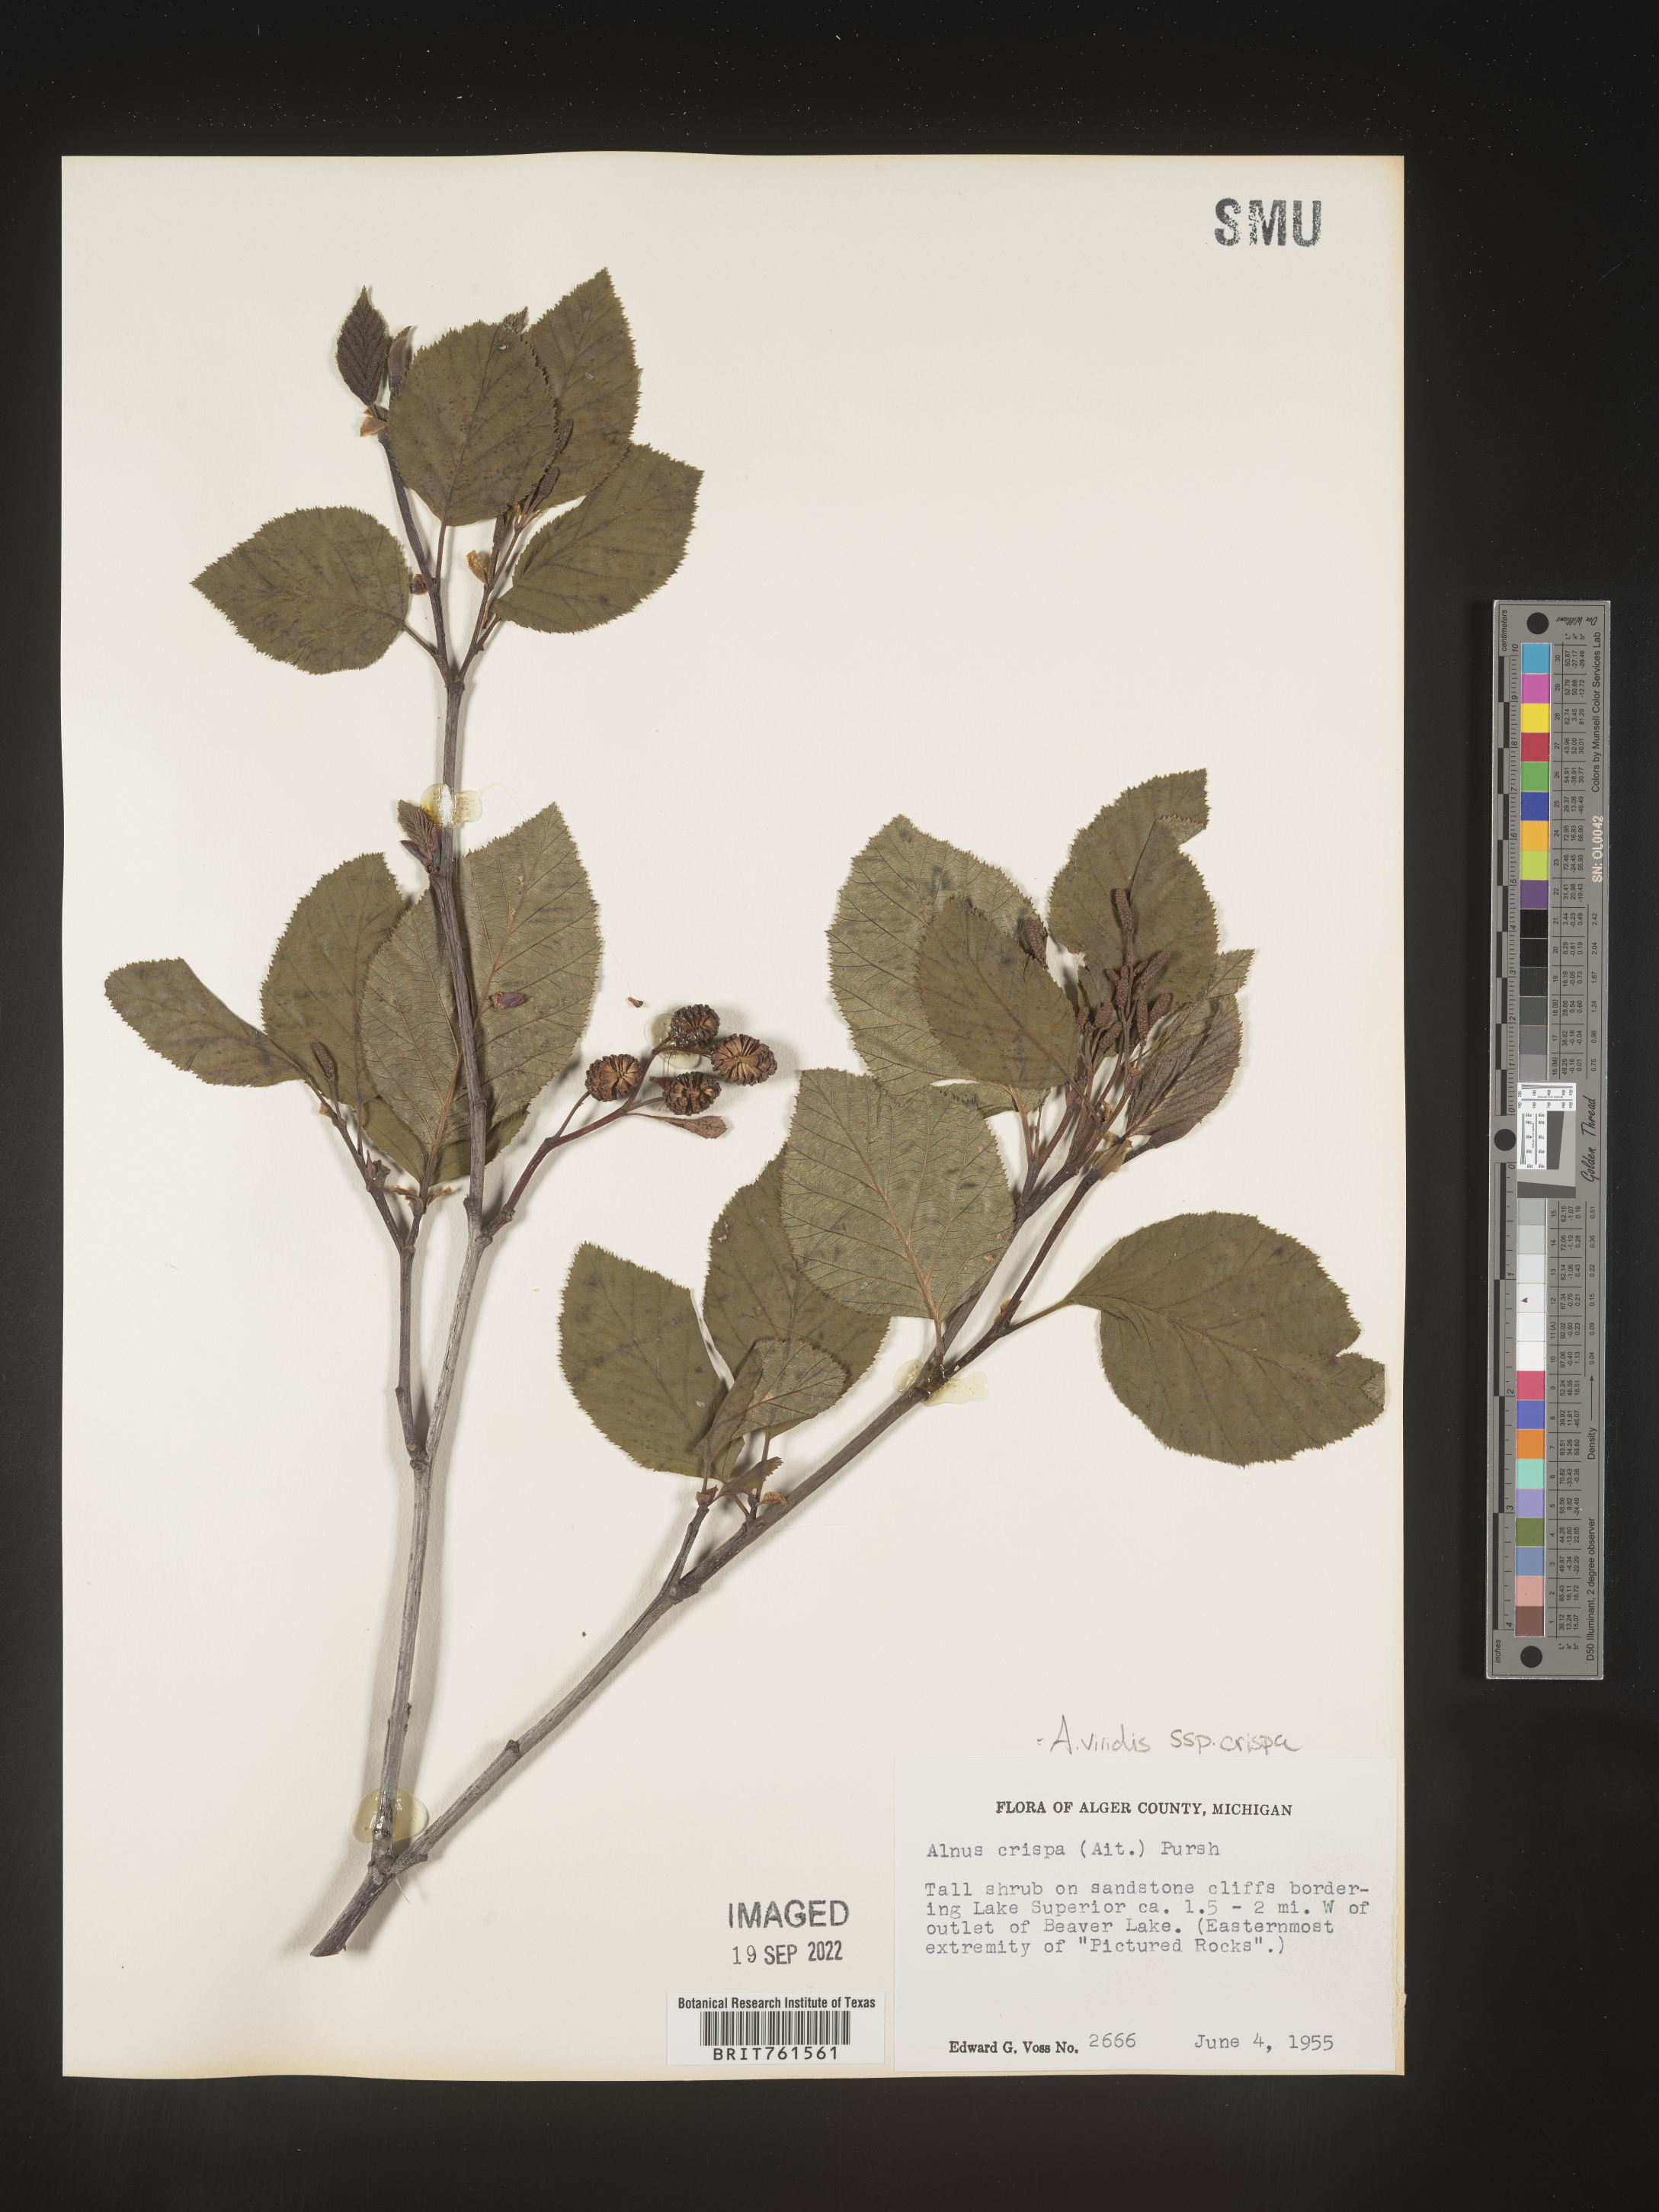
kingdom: Plantae
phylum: Tracheophyta
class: Magnoliopsida
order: Fagales
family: Betulaceae
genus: Alnus
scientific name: Alnus alnobetula
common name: Green alder
